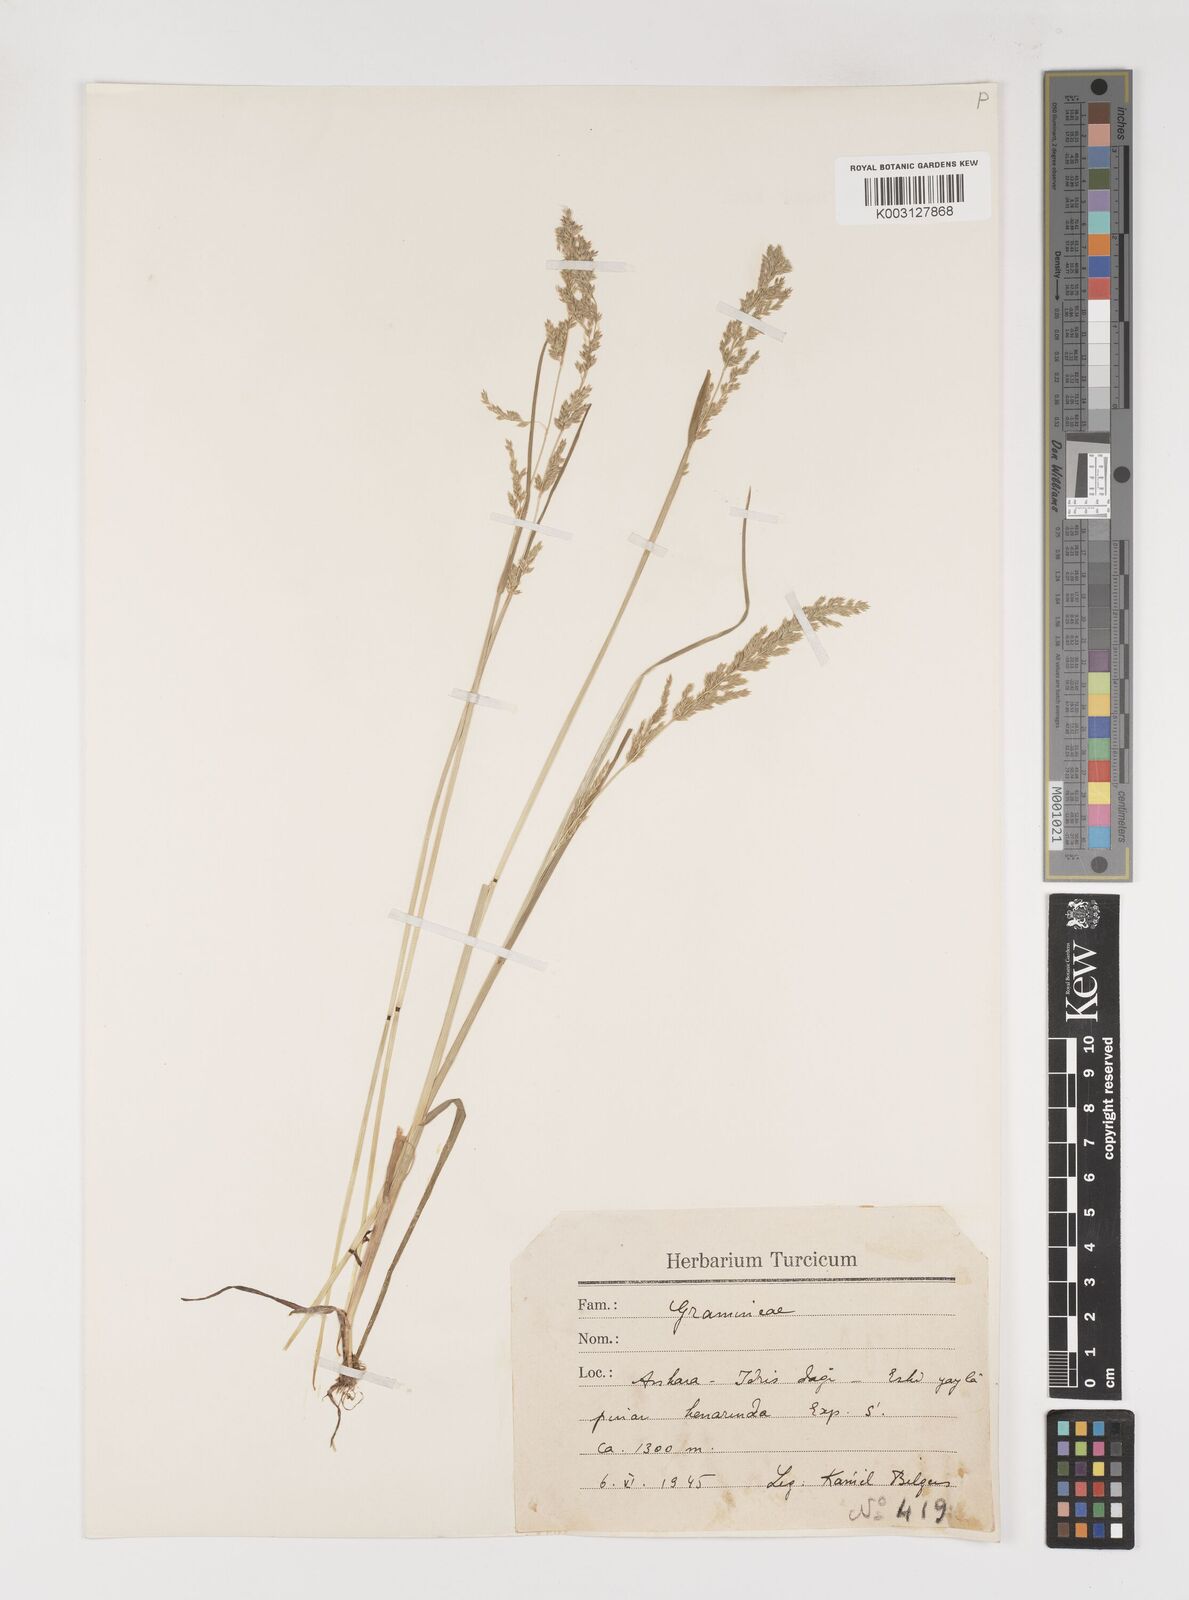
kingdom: Plantae
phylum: Tracheophyta
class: Liliopsida
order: Poales
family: Poaceae
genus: Poa
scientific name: Poa trivialis
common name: Rough bluegrass
